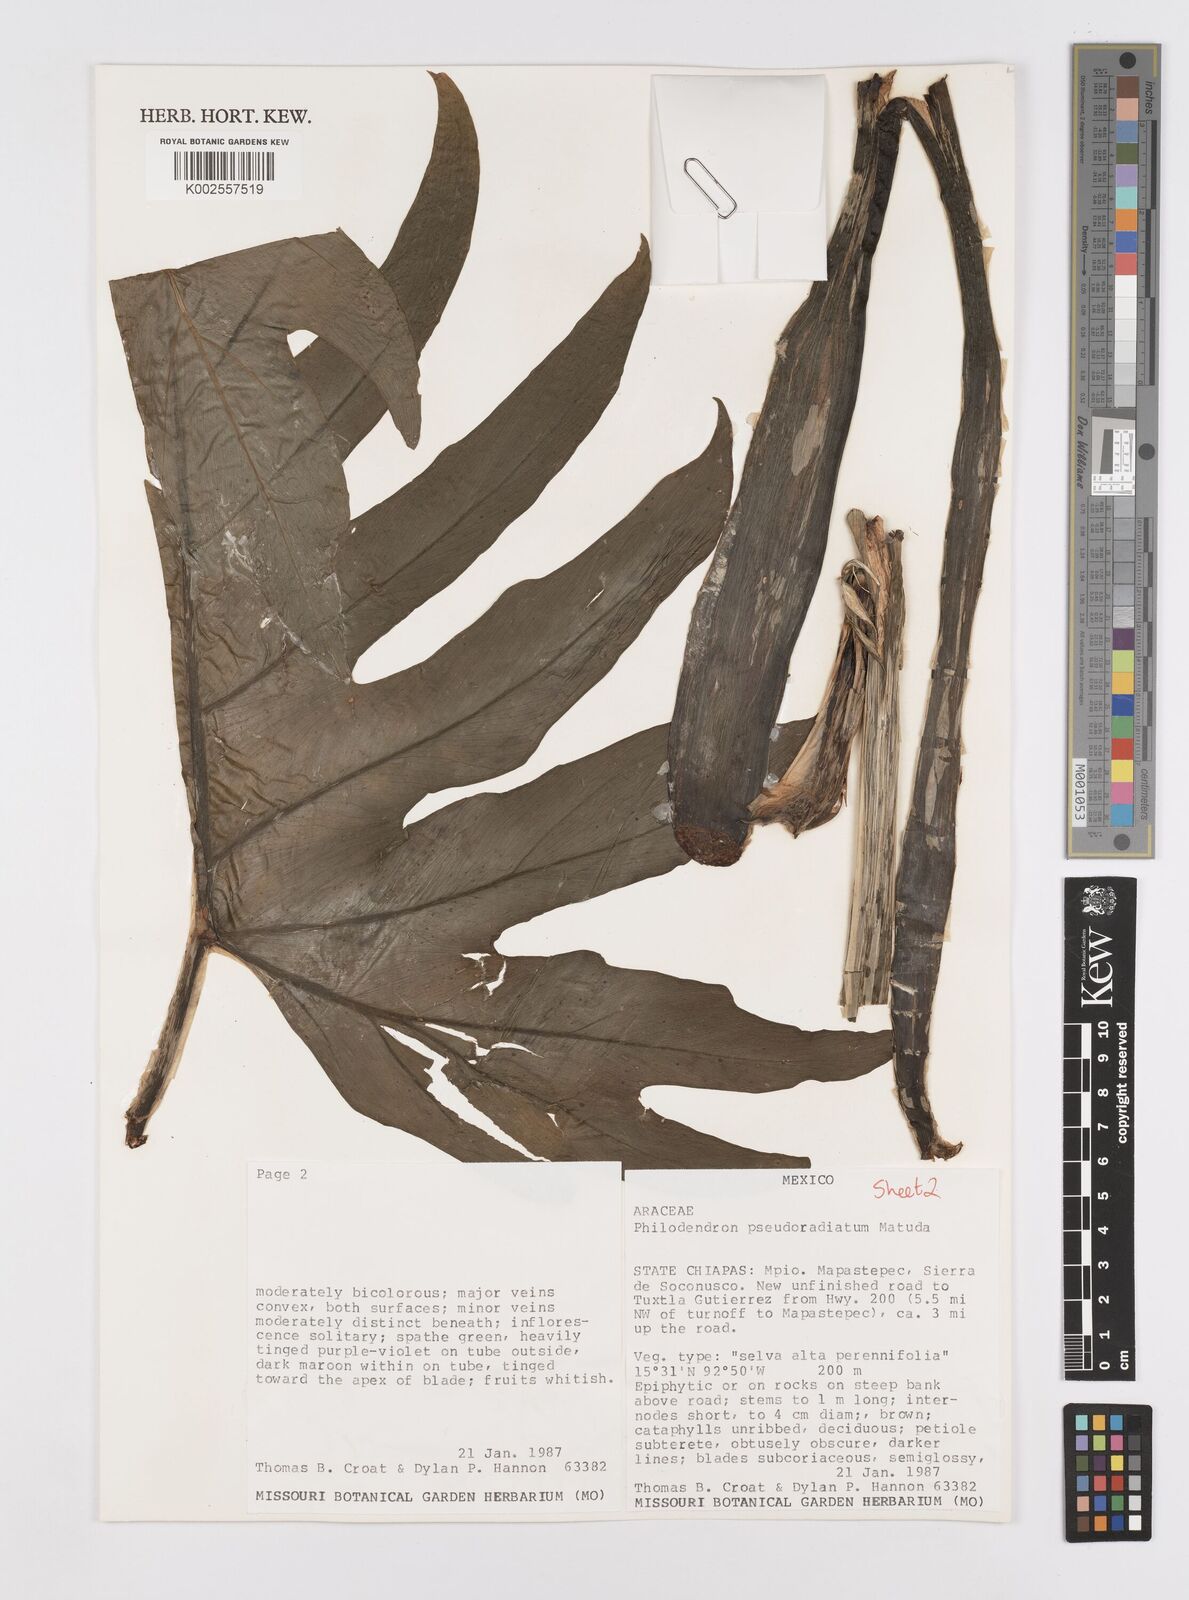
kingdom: Plantae
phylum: Tracheophyta
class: Liliopsida
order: Alismatales
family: Araceae
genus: Philodendron
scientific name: Philodendron radiatum
